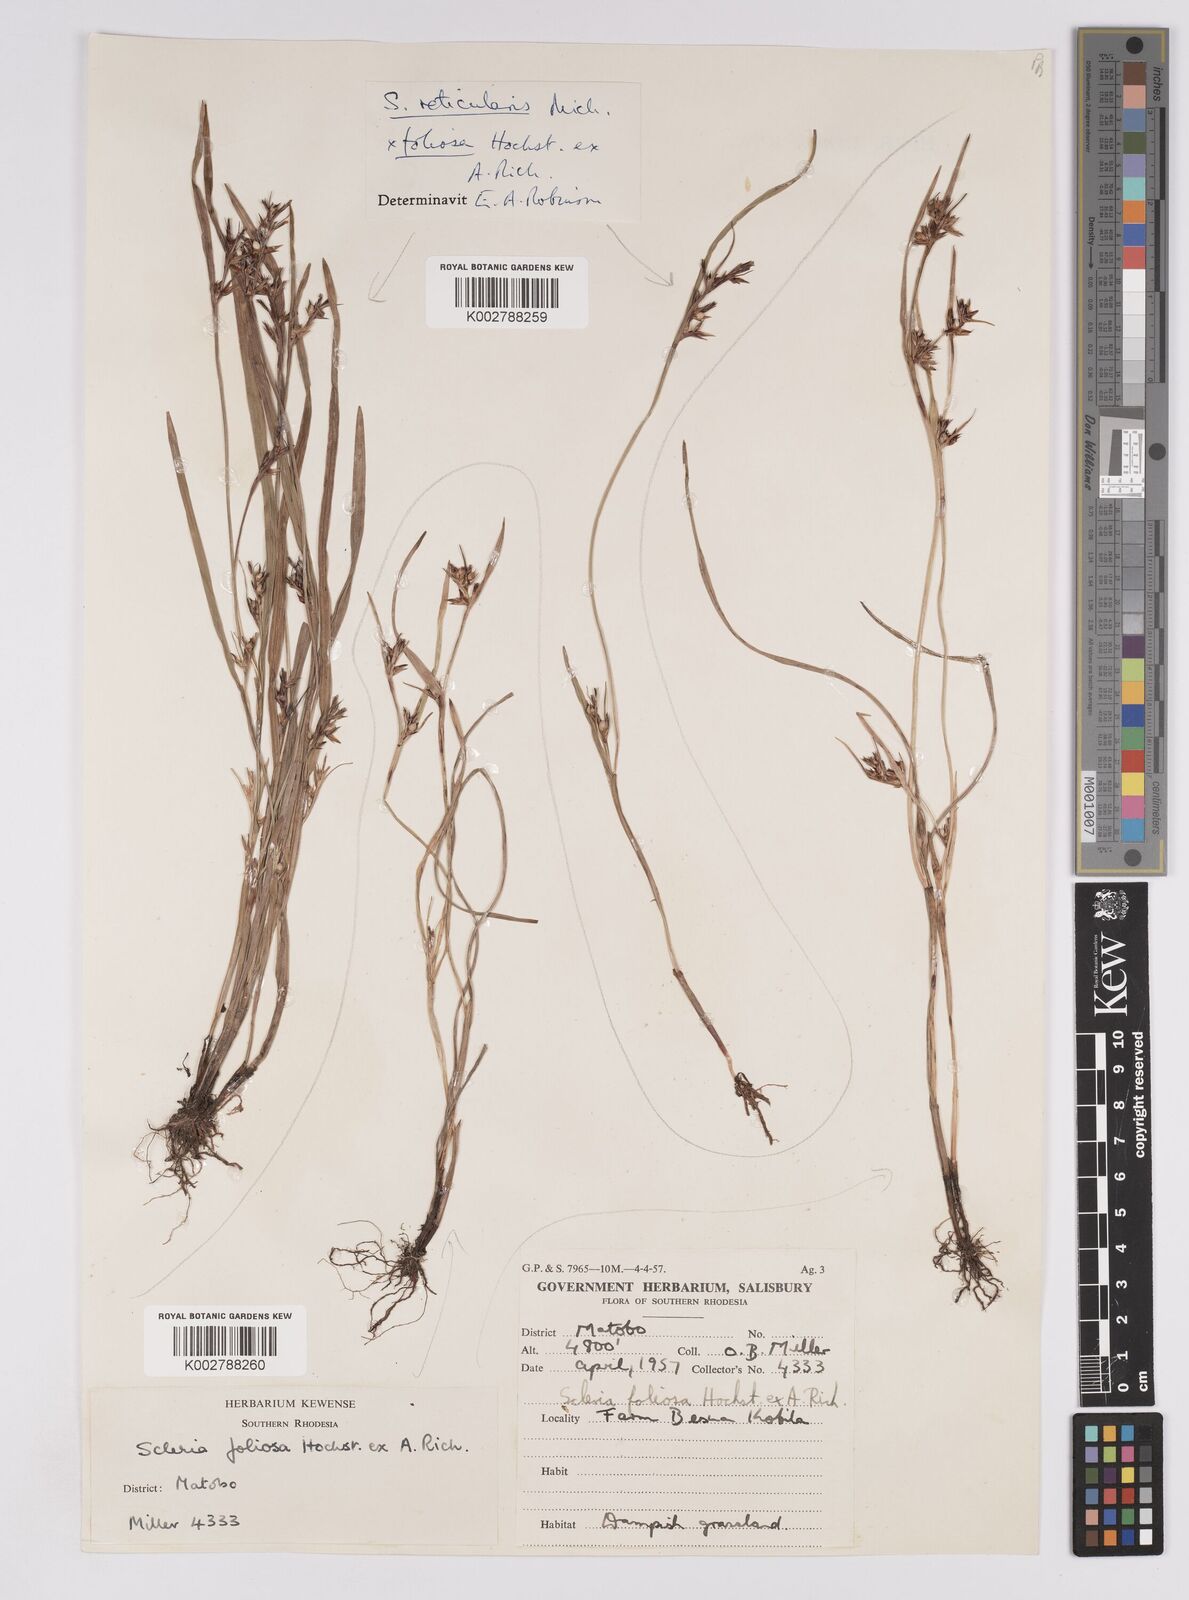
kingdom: Plantae
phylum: Tracheophyta
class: Liliopsida
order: Poales
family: Cyperaceae
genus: Scleria
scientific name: Scleria foliosa
